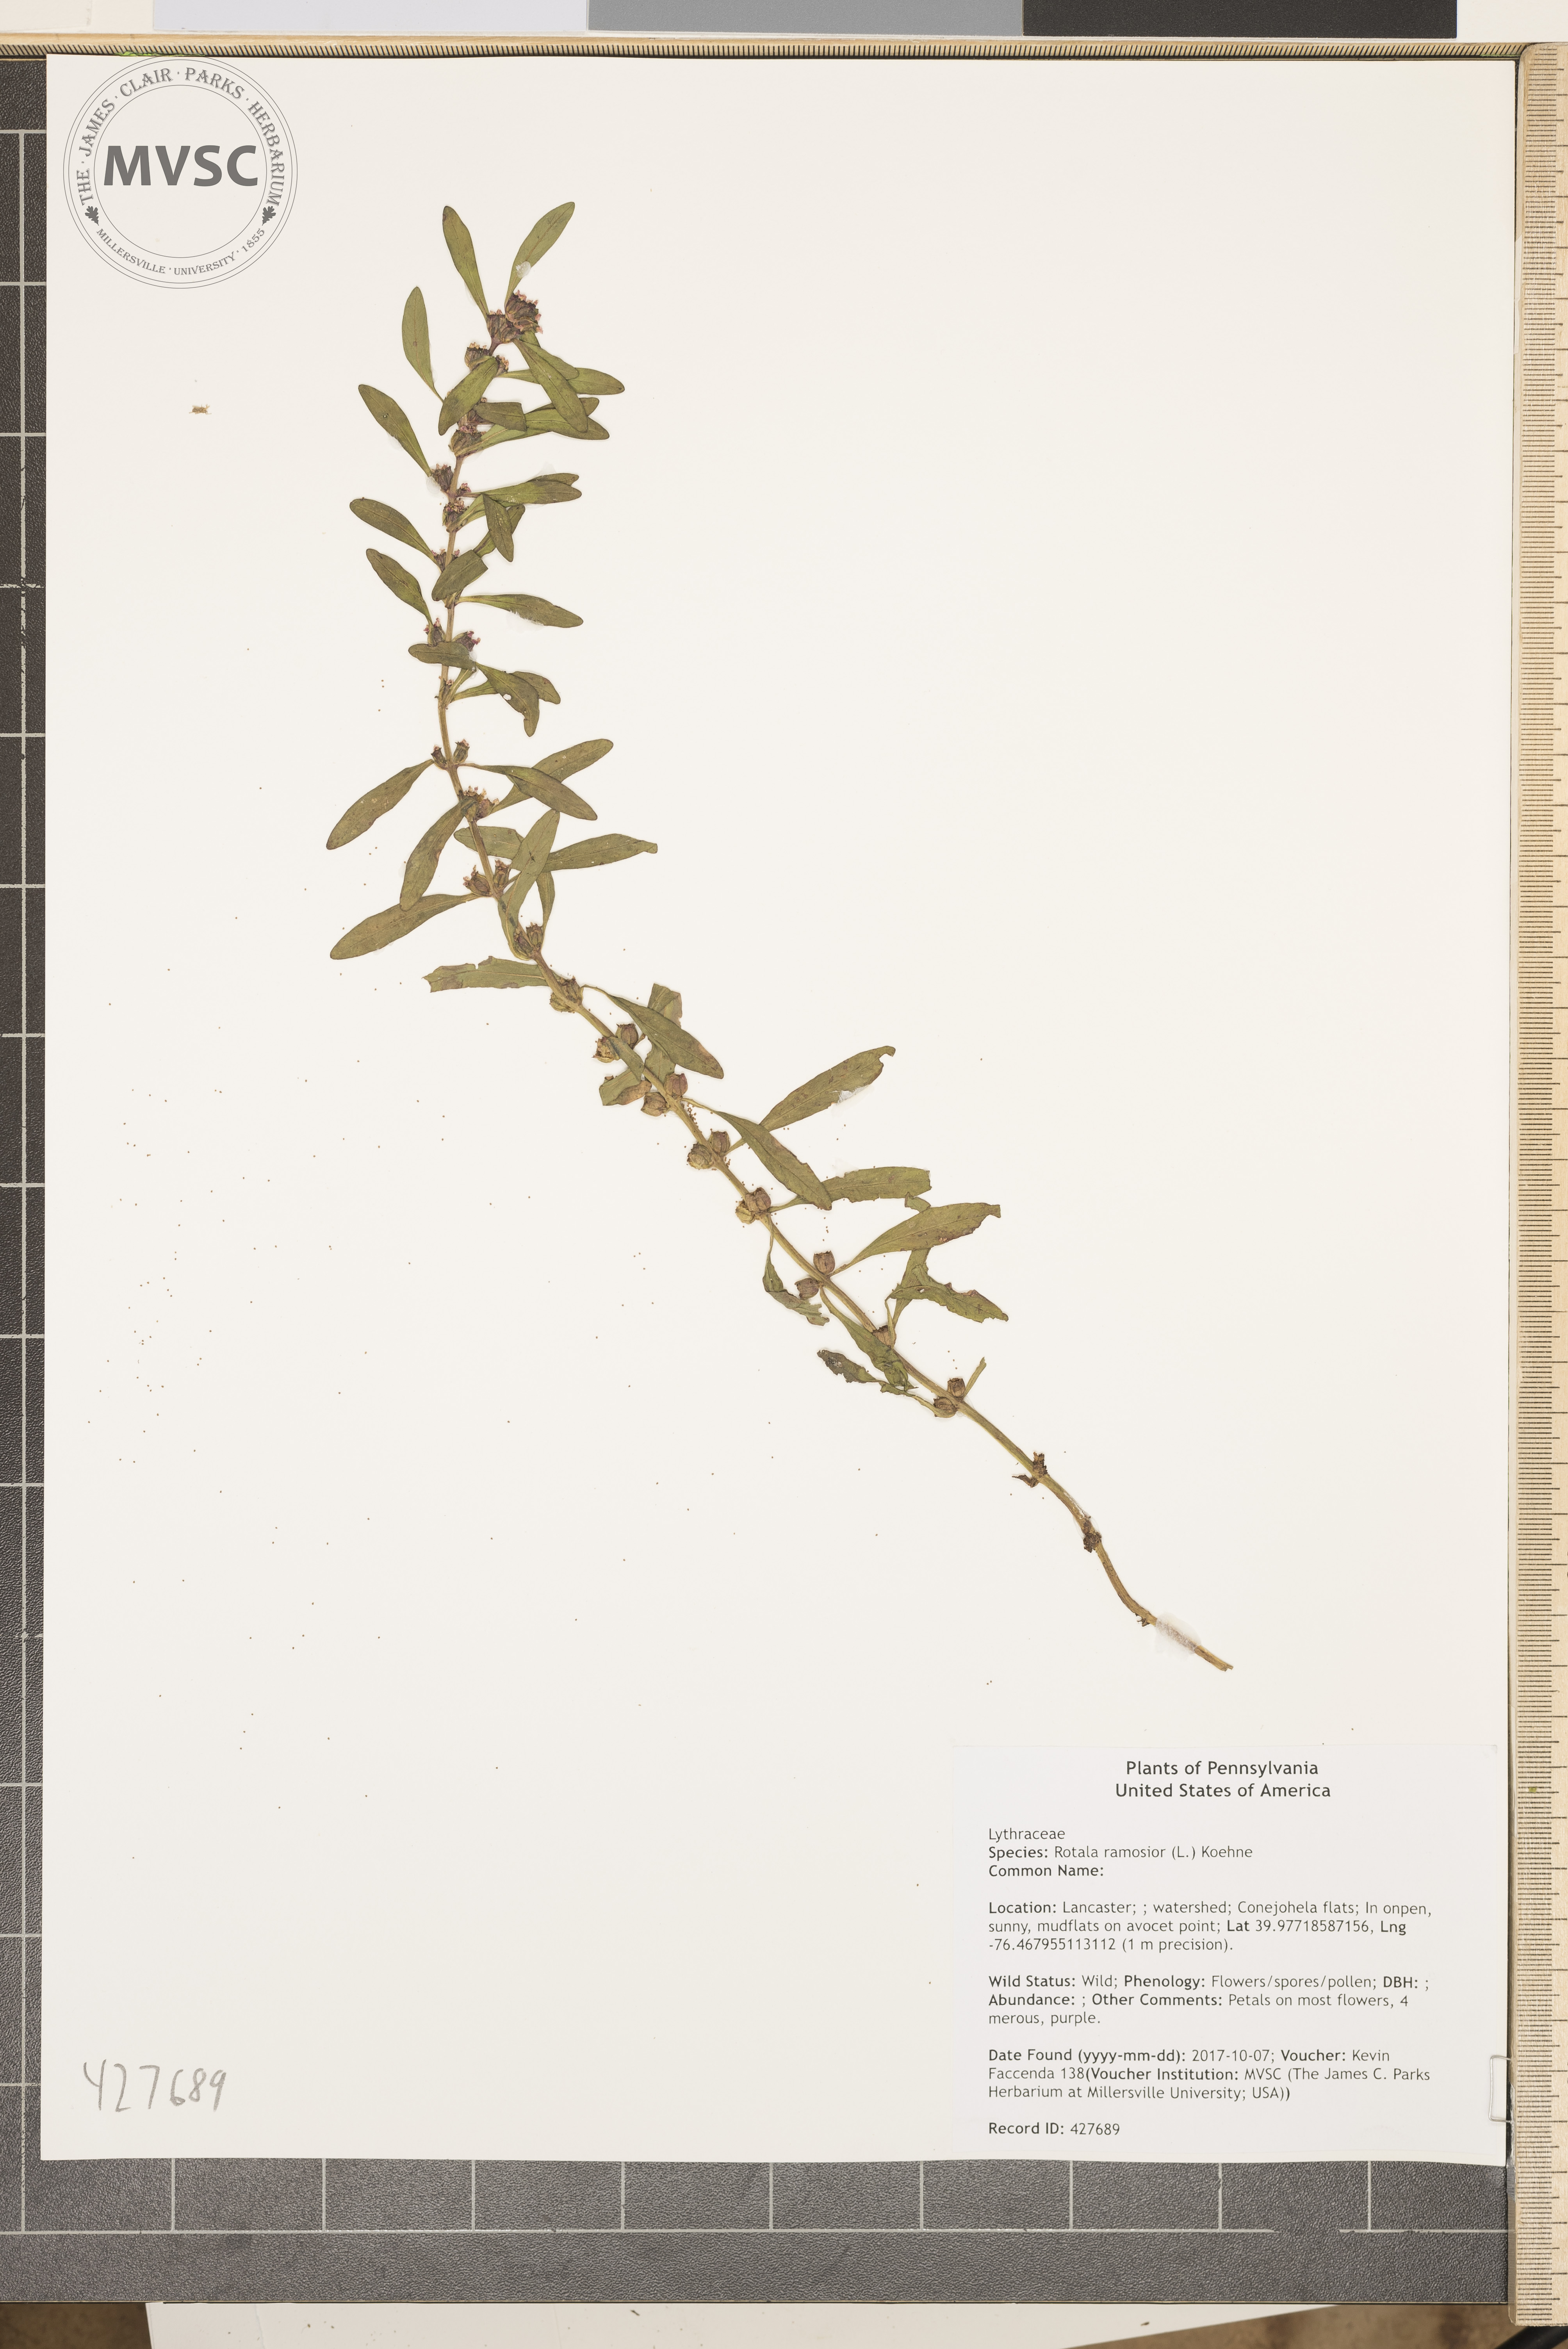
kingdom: Plantae
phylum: Tracheophyta
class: Magnoliopsida
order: Myrtales
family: Lythraceae
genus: Rotala
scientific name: Rotala ramosior
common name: Lowland rotala
